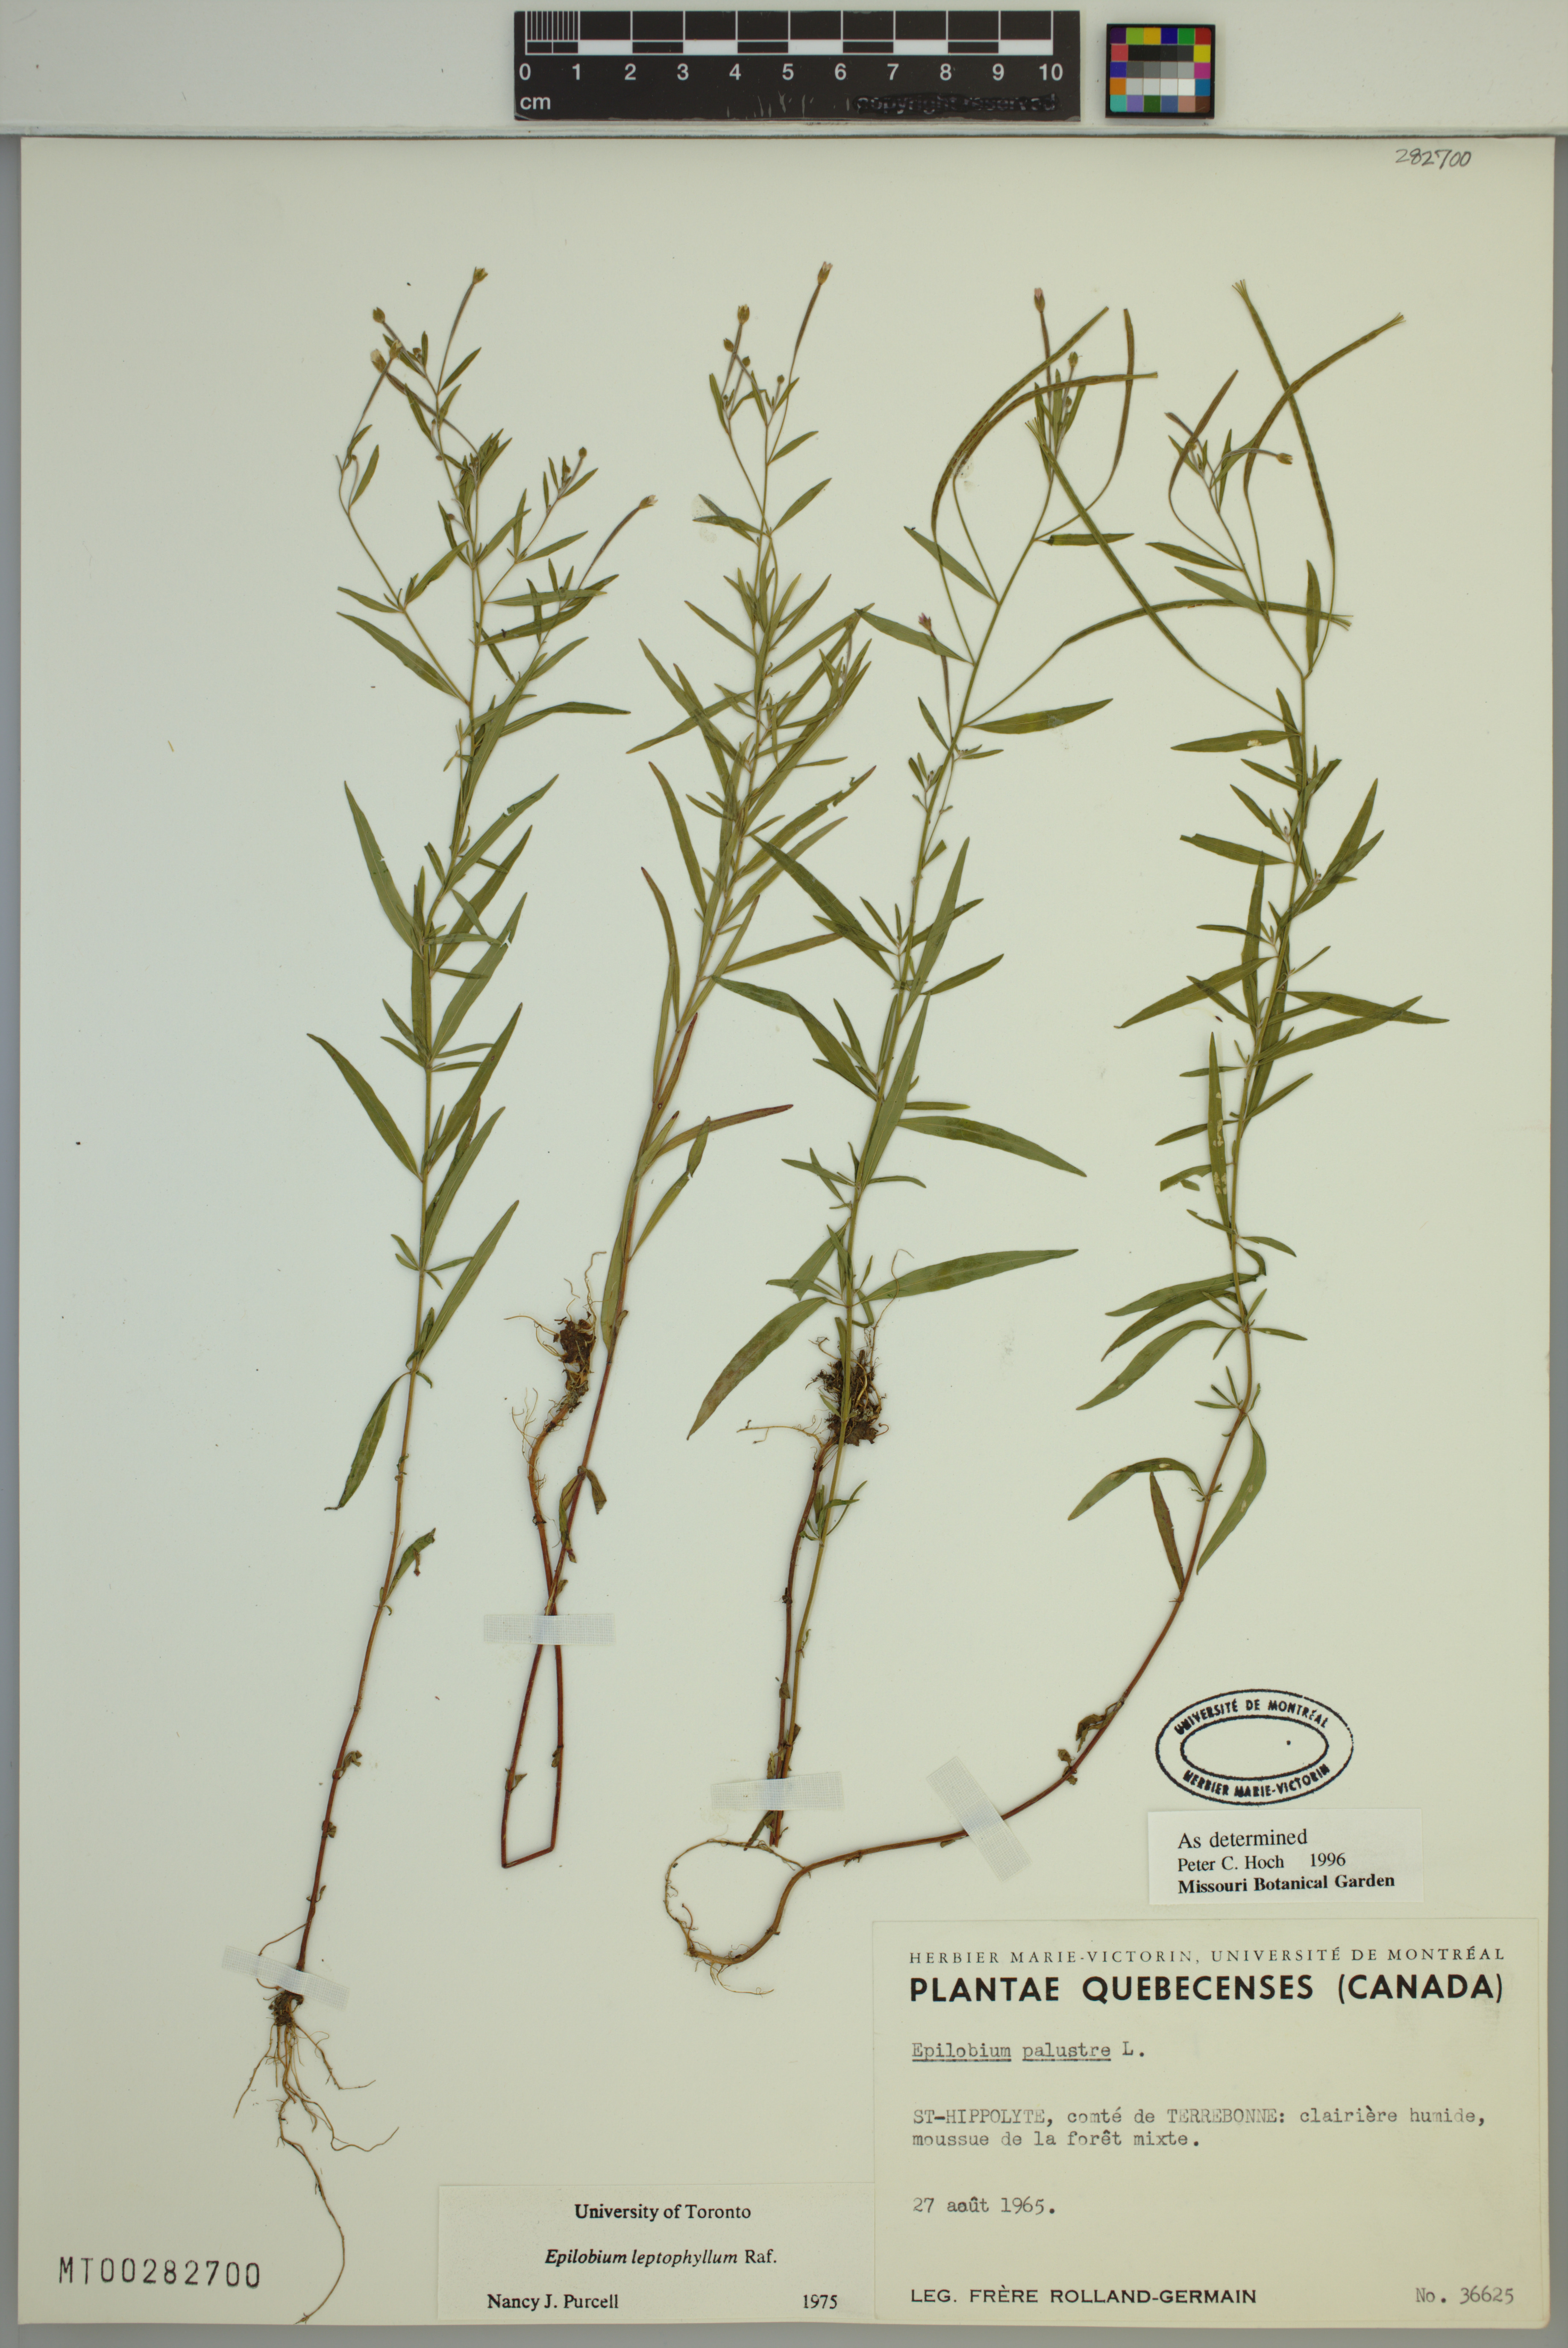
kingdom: Plantae
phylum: Tracheophyta
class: Magnoliopsida
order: Myrtales
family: Onagraceae
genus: Epilobium
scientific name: Epilobium palustre
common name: Marsh willowherb
